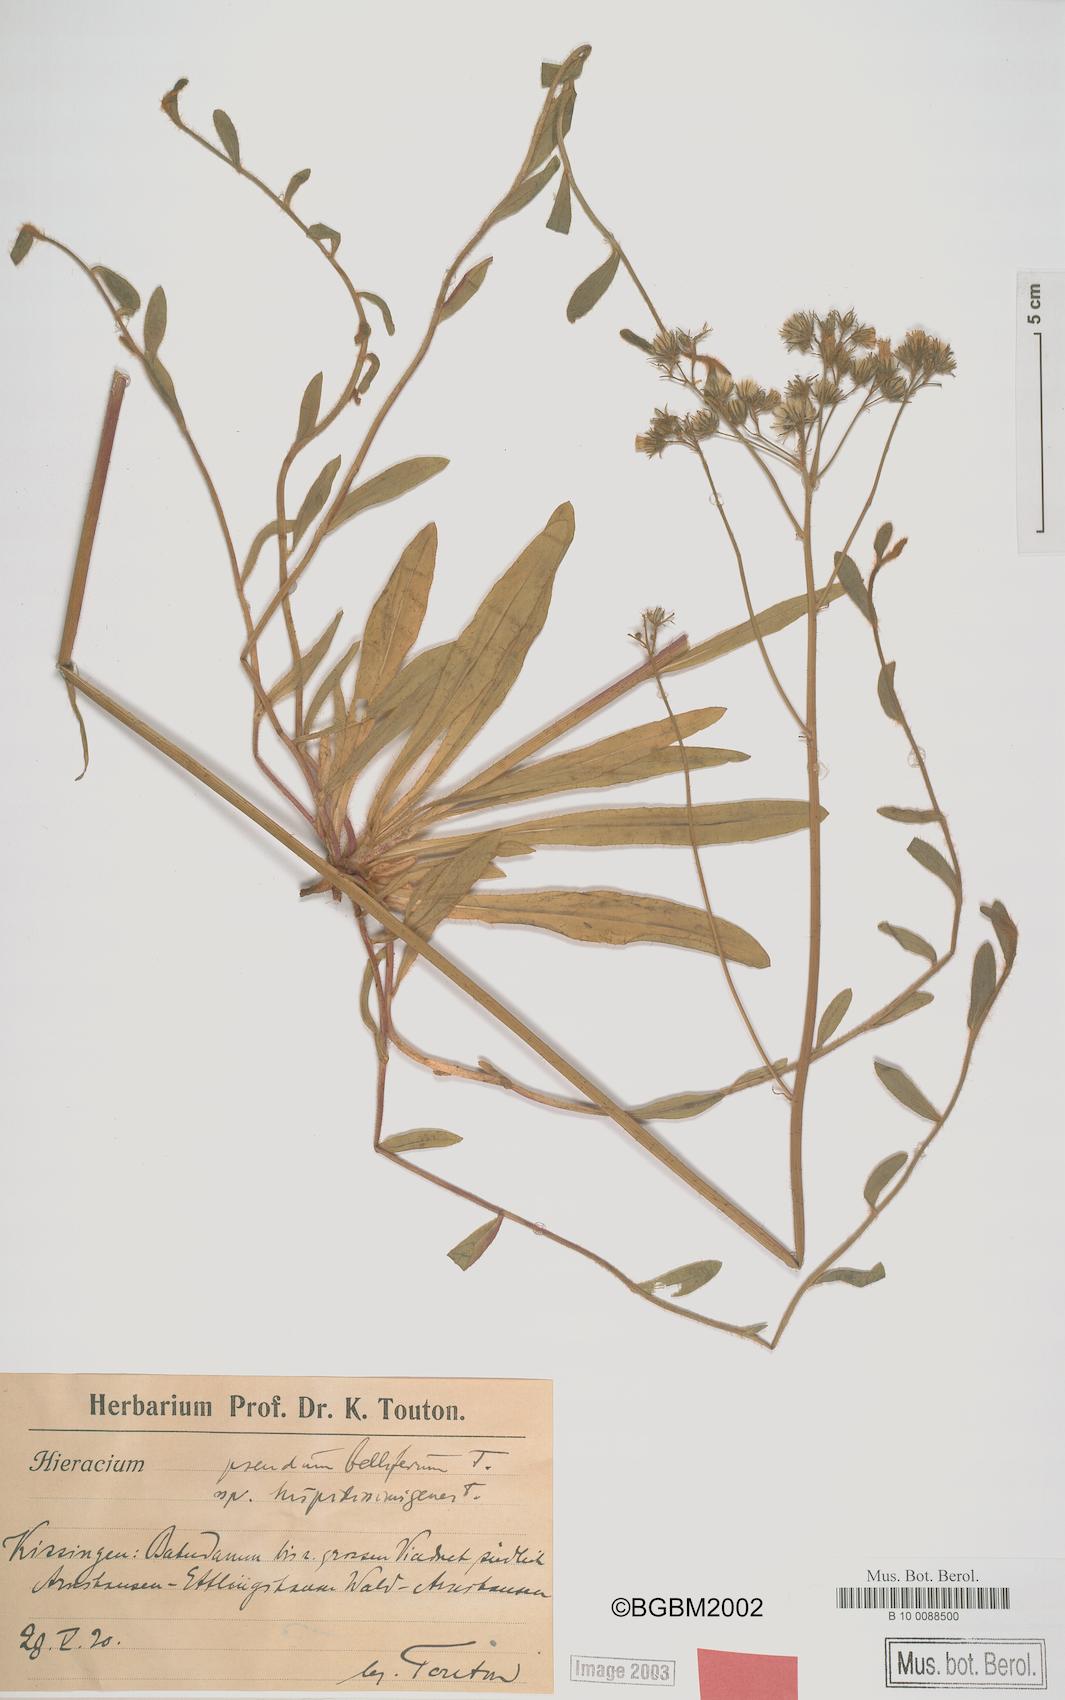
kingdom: Plantae
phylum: Tracheophyta
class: Magnoliopsida
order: Asterales
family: Asteraceae
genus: Pilosella
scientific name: Pilosella bauhini
